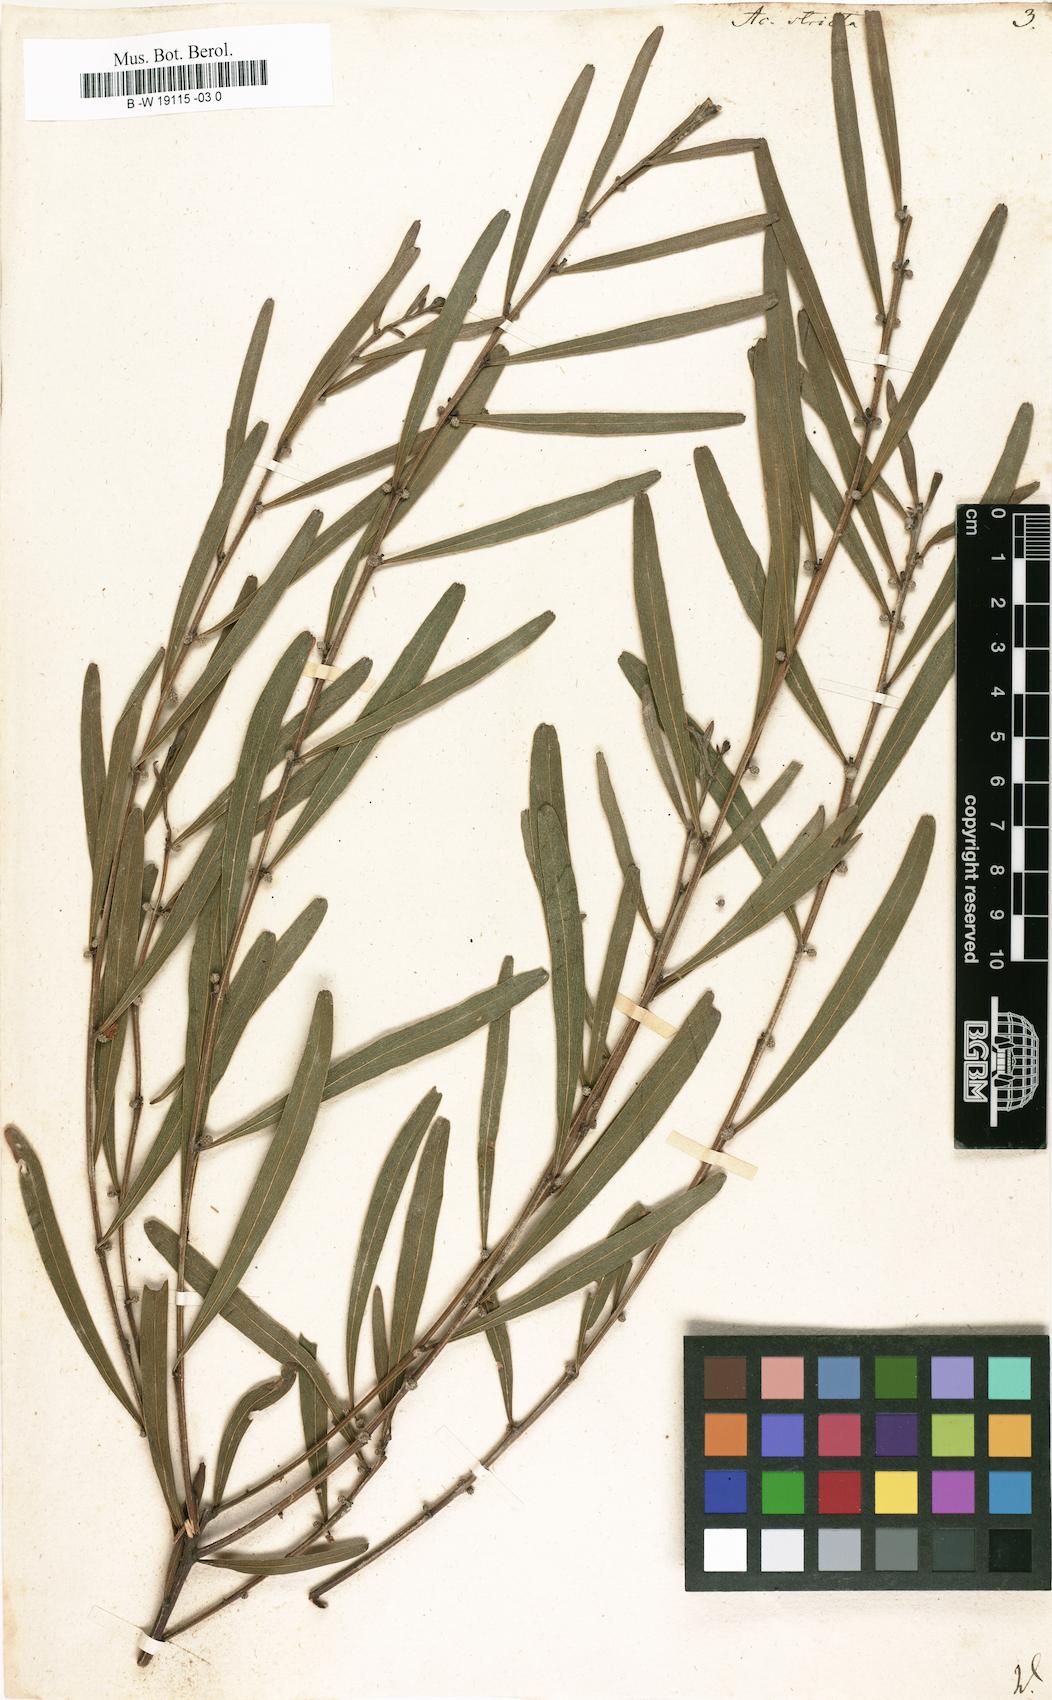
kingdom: Plantae
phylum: Tracheophyta
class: Magnoliopsida
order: Fabales
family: Fabaceae
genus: Acacia
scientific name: Acacia stricta
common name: Hop wattle
